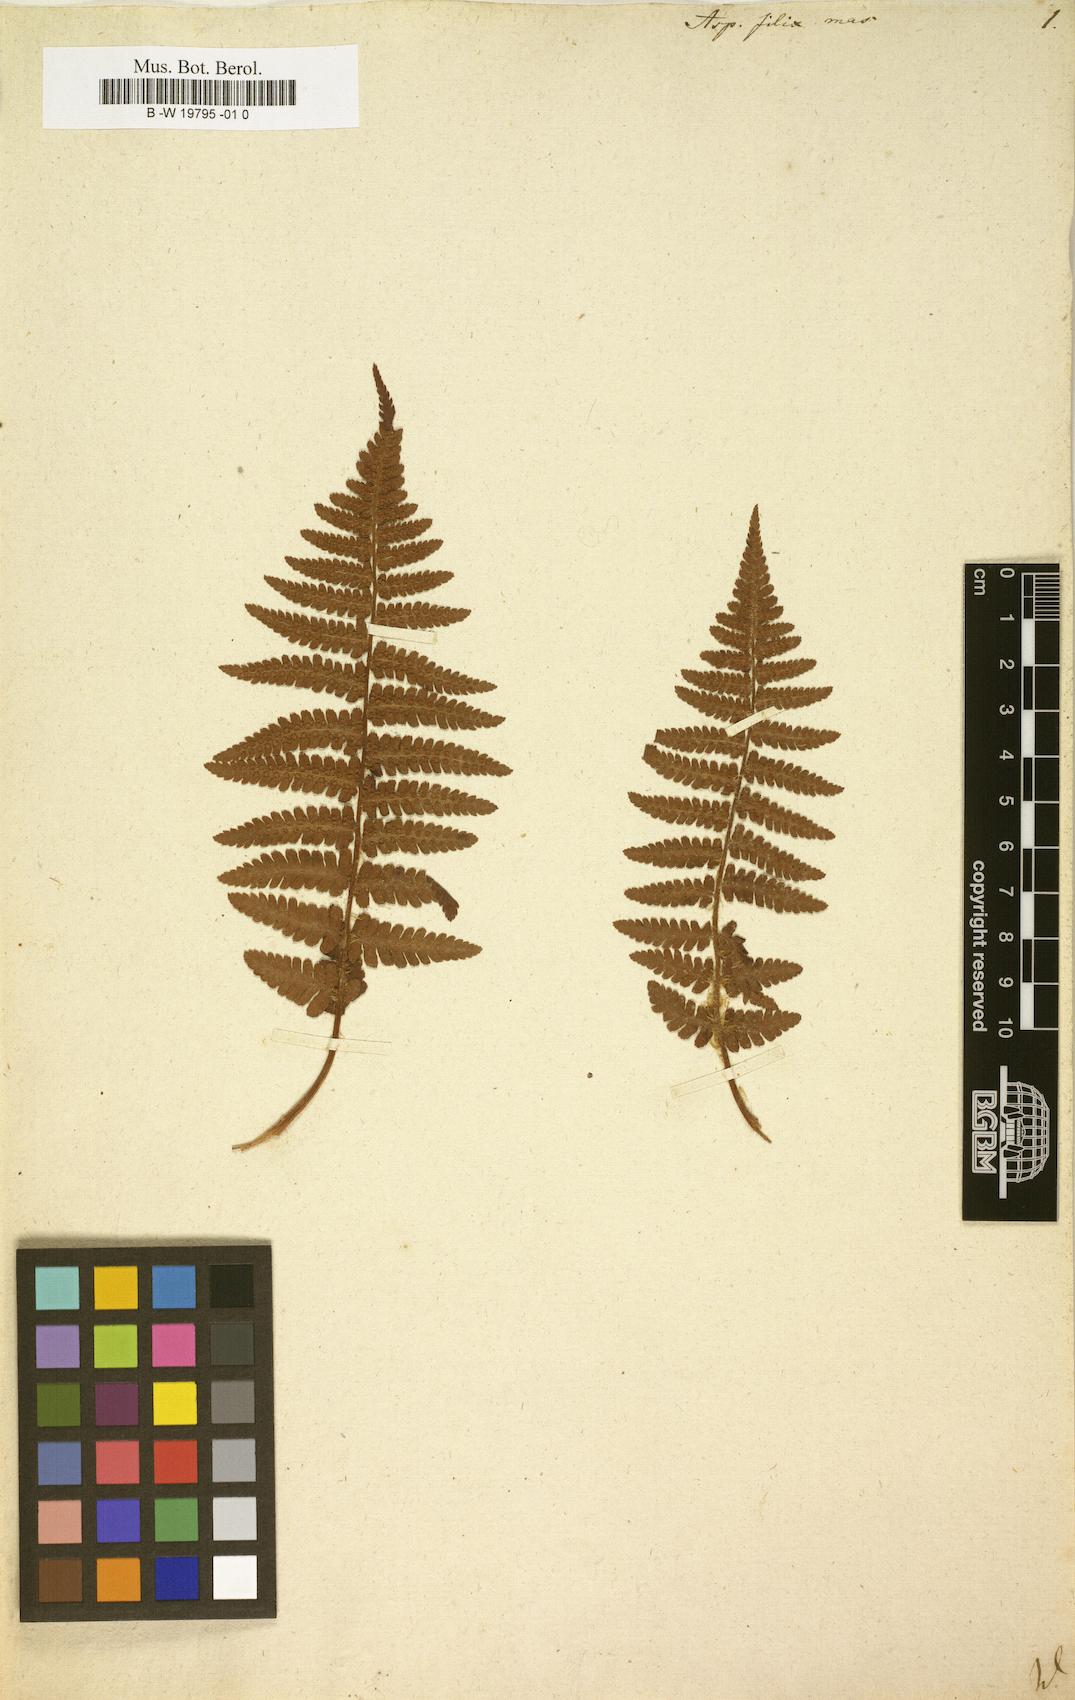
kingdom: Plantae
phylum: Tracheophyta
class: Polypodiopsida
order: Polypodiales
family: Dryopteridaceae
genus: Dryopteris
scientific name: Dryopteris filix-mas
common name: Male fern
